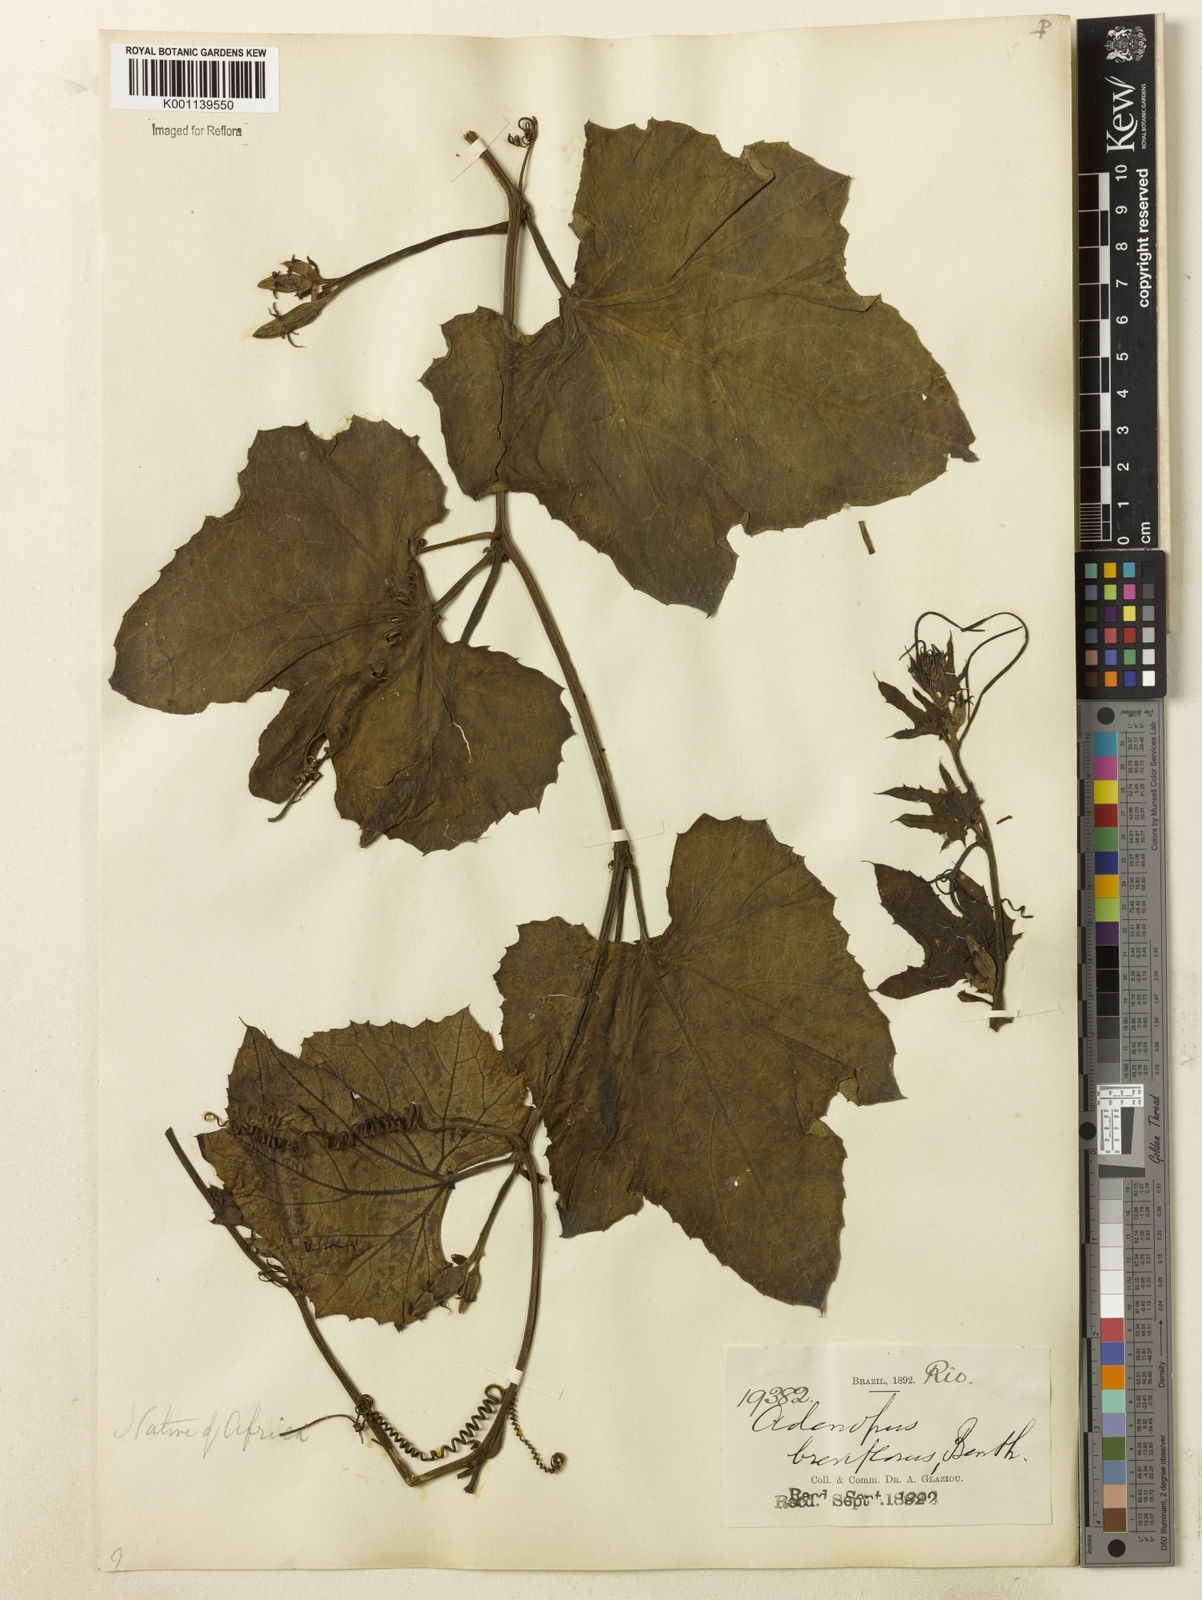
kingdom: Plantae
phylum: Tracheophyta
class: Magnoliopsida
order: Cucurbitales
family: Cucurbitaceae
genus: Lagenaria
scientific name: Lagenaria breviflora
